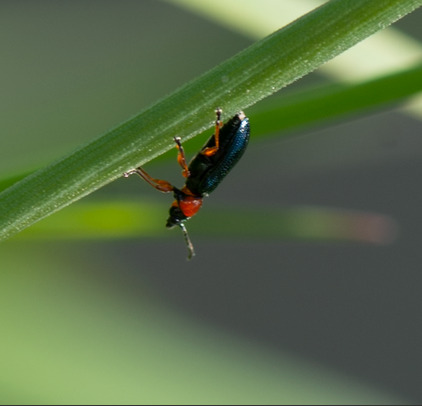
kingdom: Animalia
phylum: Arthropoda
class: Insecta
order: Coleoptera
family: Chrysomelidae
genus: Oulema
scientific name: Oulema
